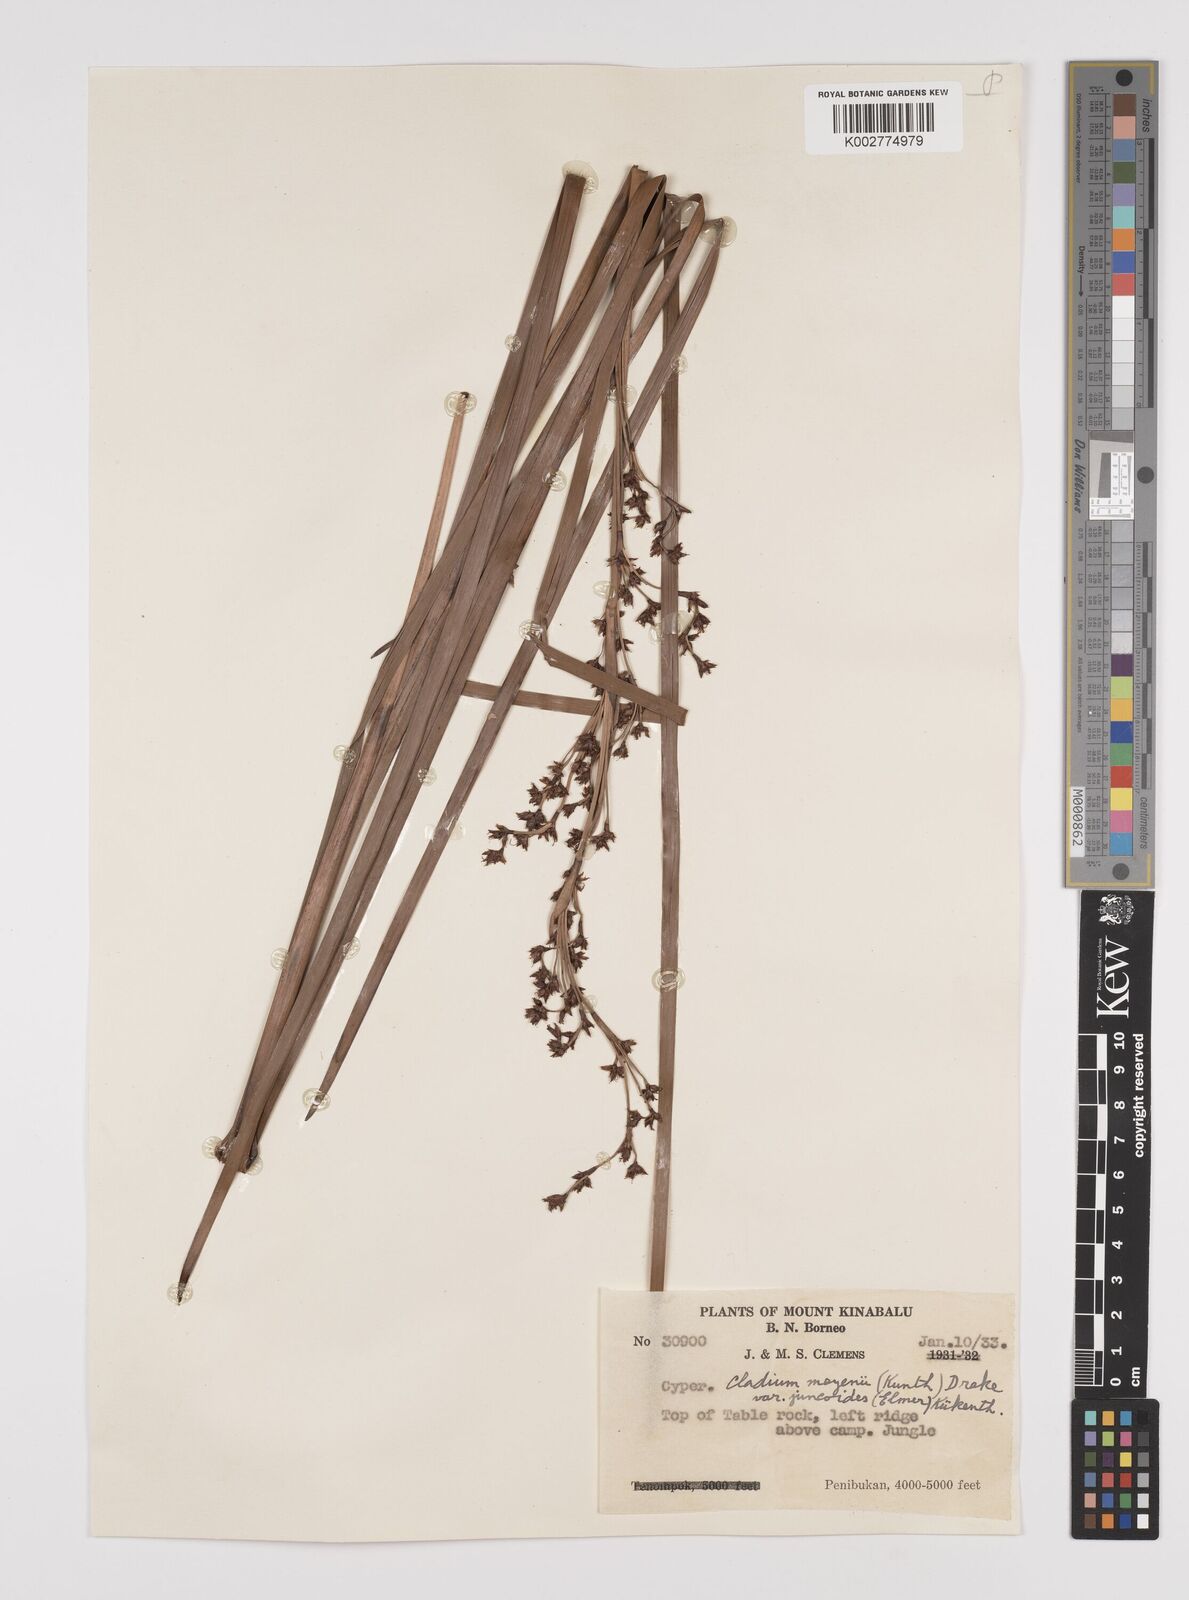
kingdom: Plantae
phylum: Tracheophyta
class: Liliopsida
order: Poales
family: Cyperaceae
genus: Machaerina
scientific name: Machaerina glomerata
